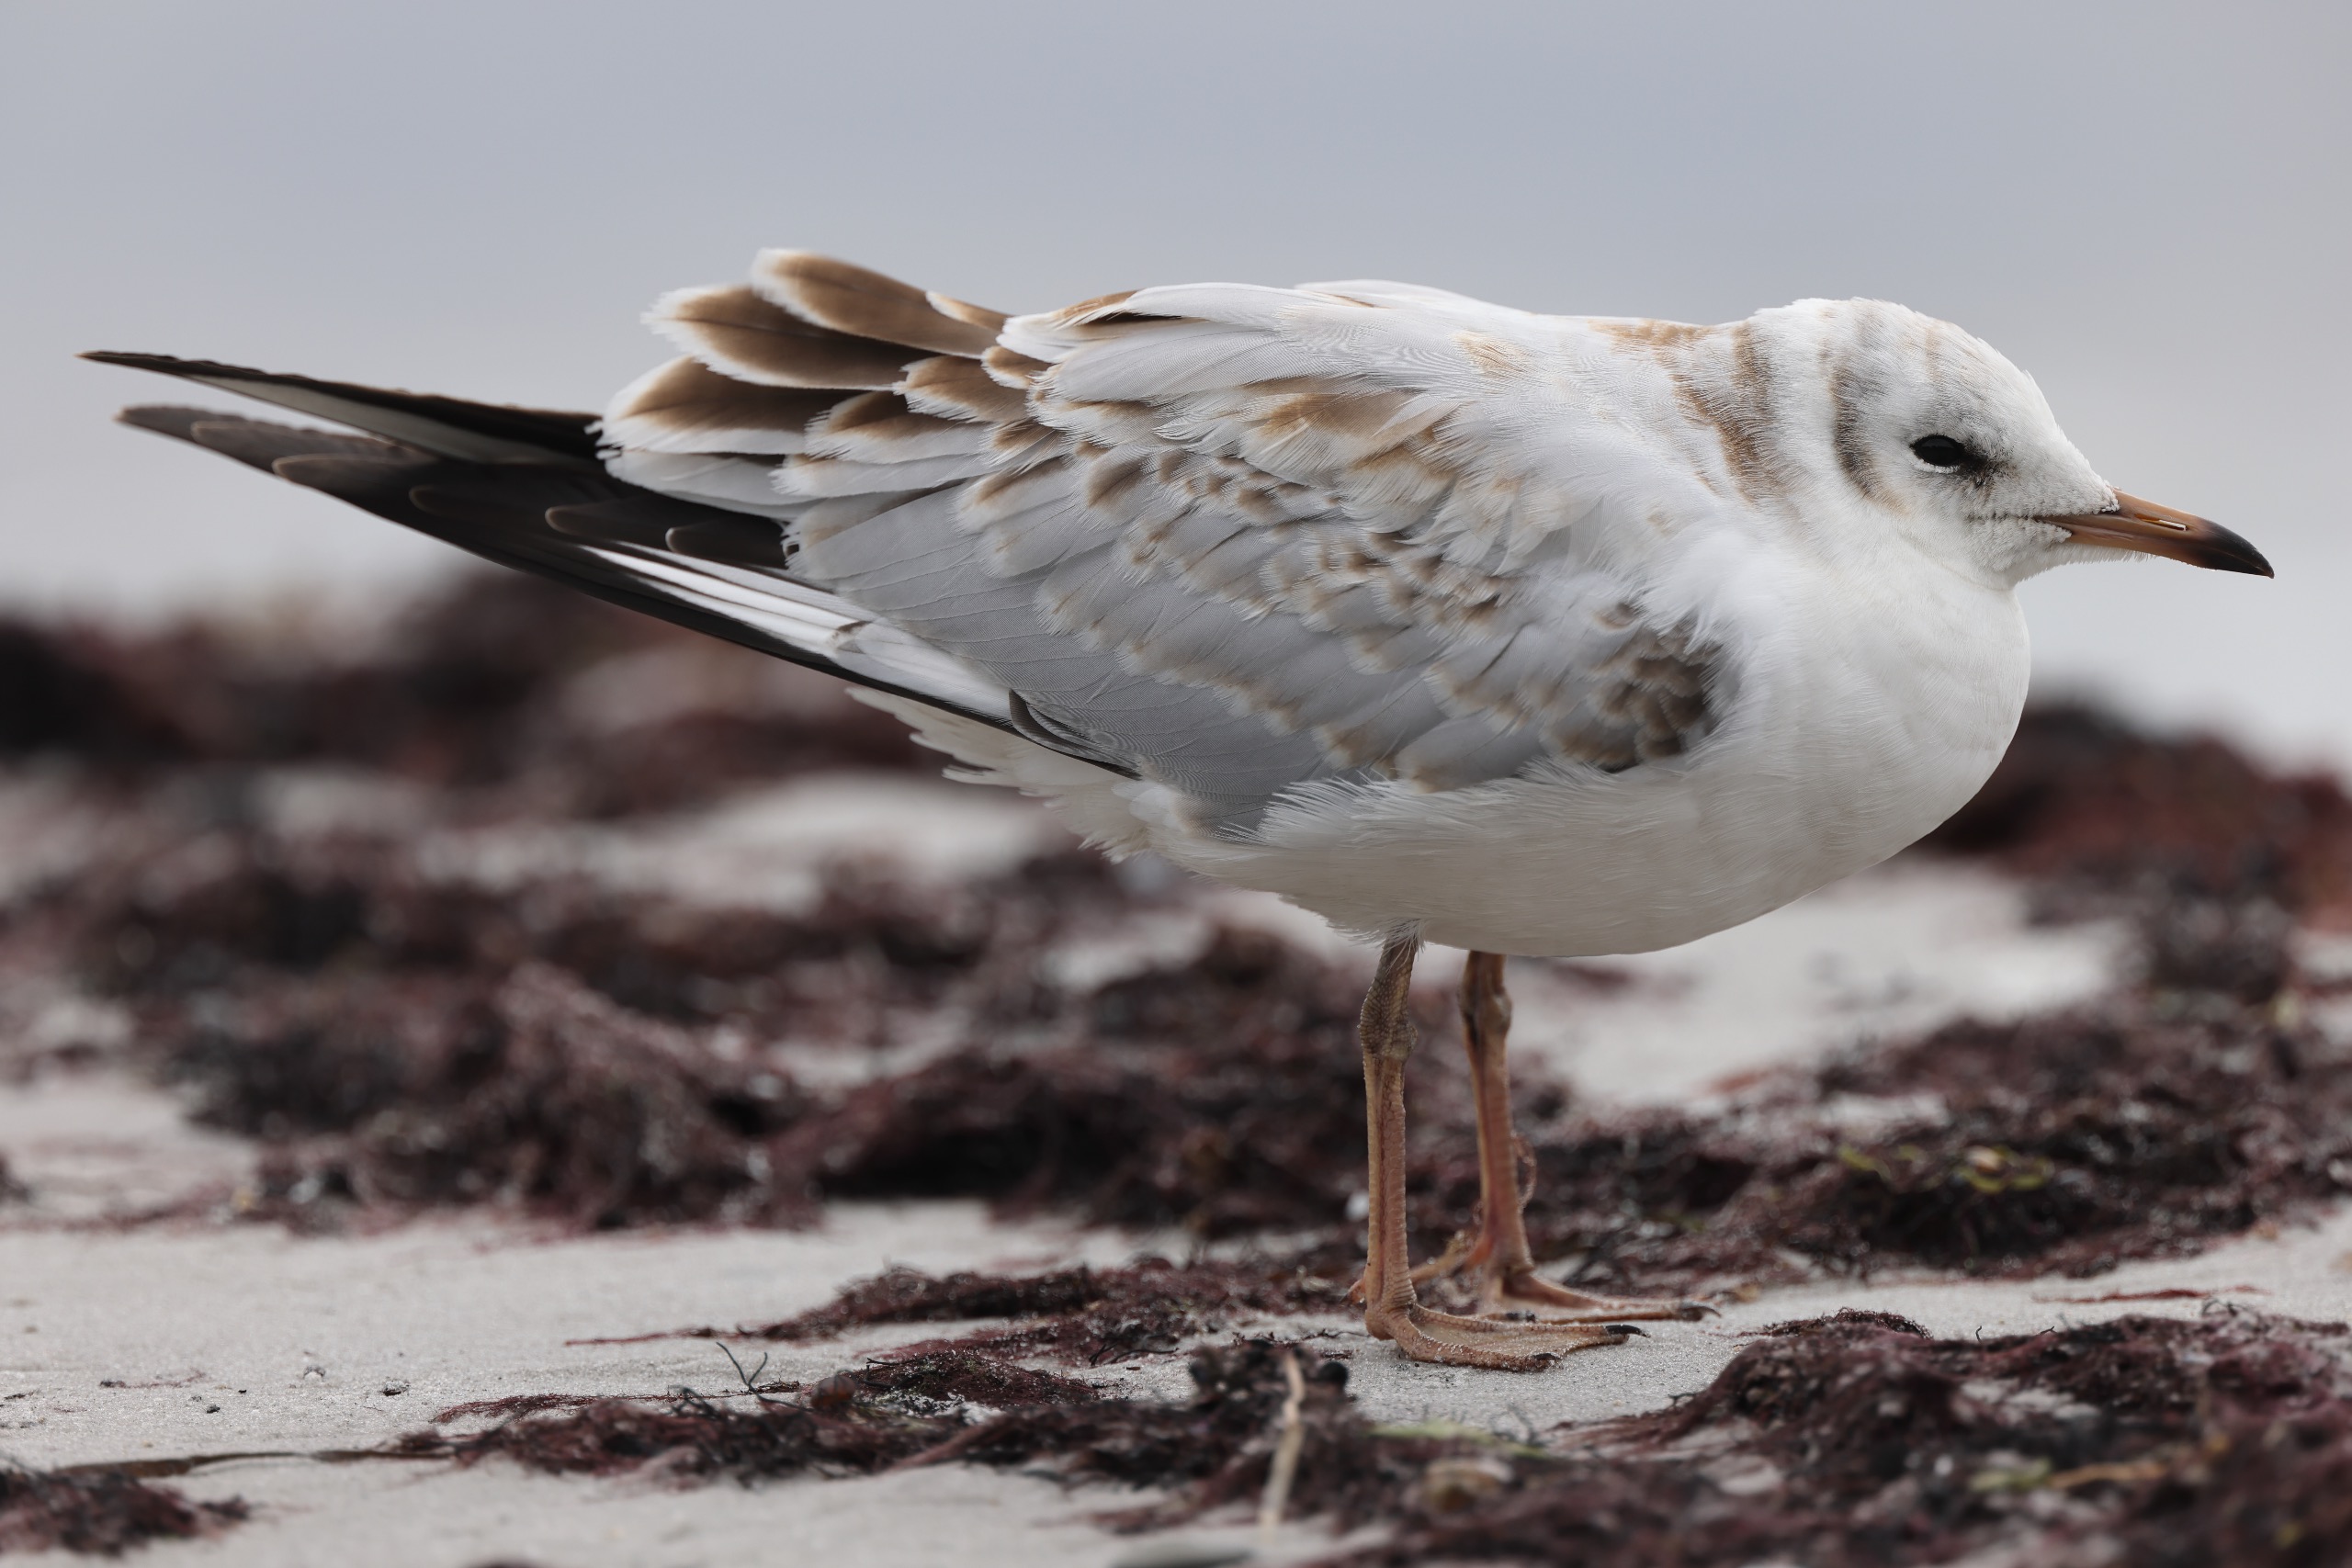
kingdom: Animalia
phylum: Chordata
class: Aves
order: Charadriiformes
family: Laridae
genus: Chroicocephalus
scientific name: Chroicocephalus ridibundus
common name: Hættemåge
